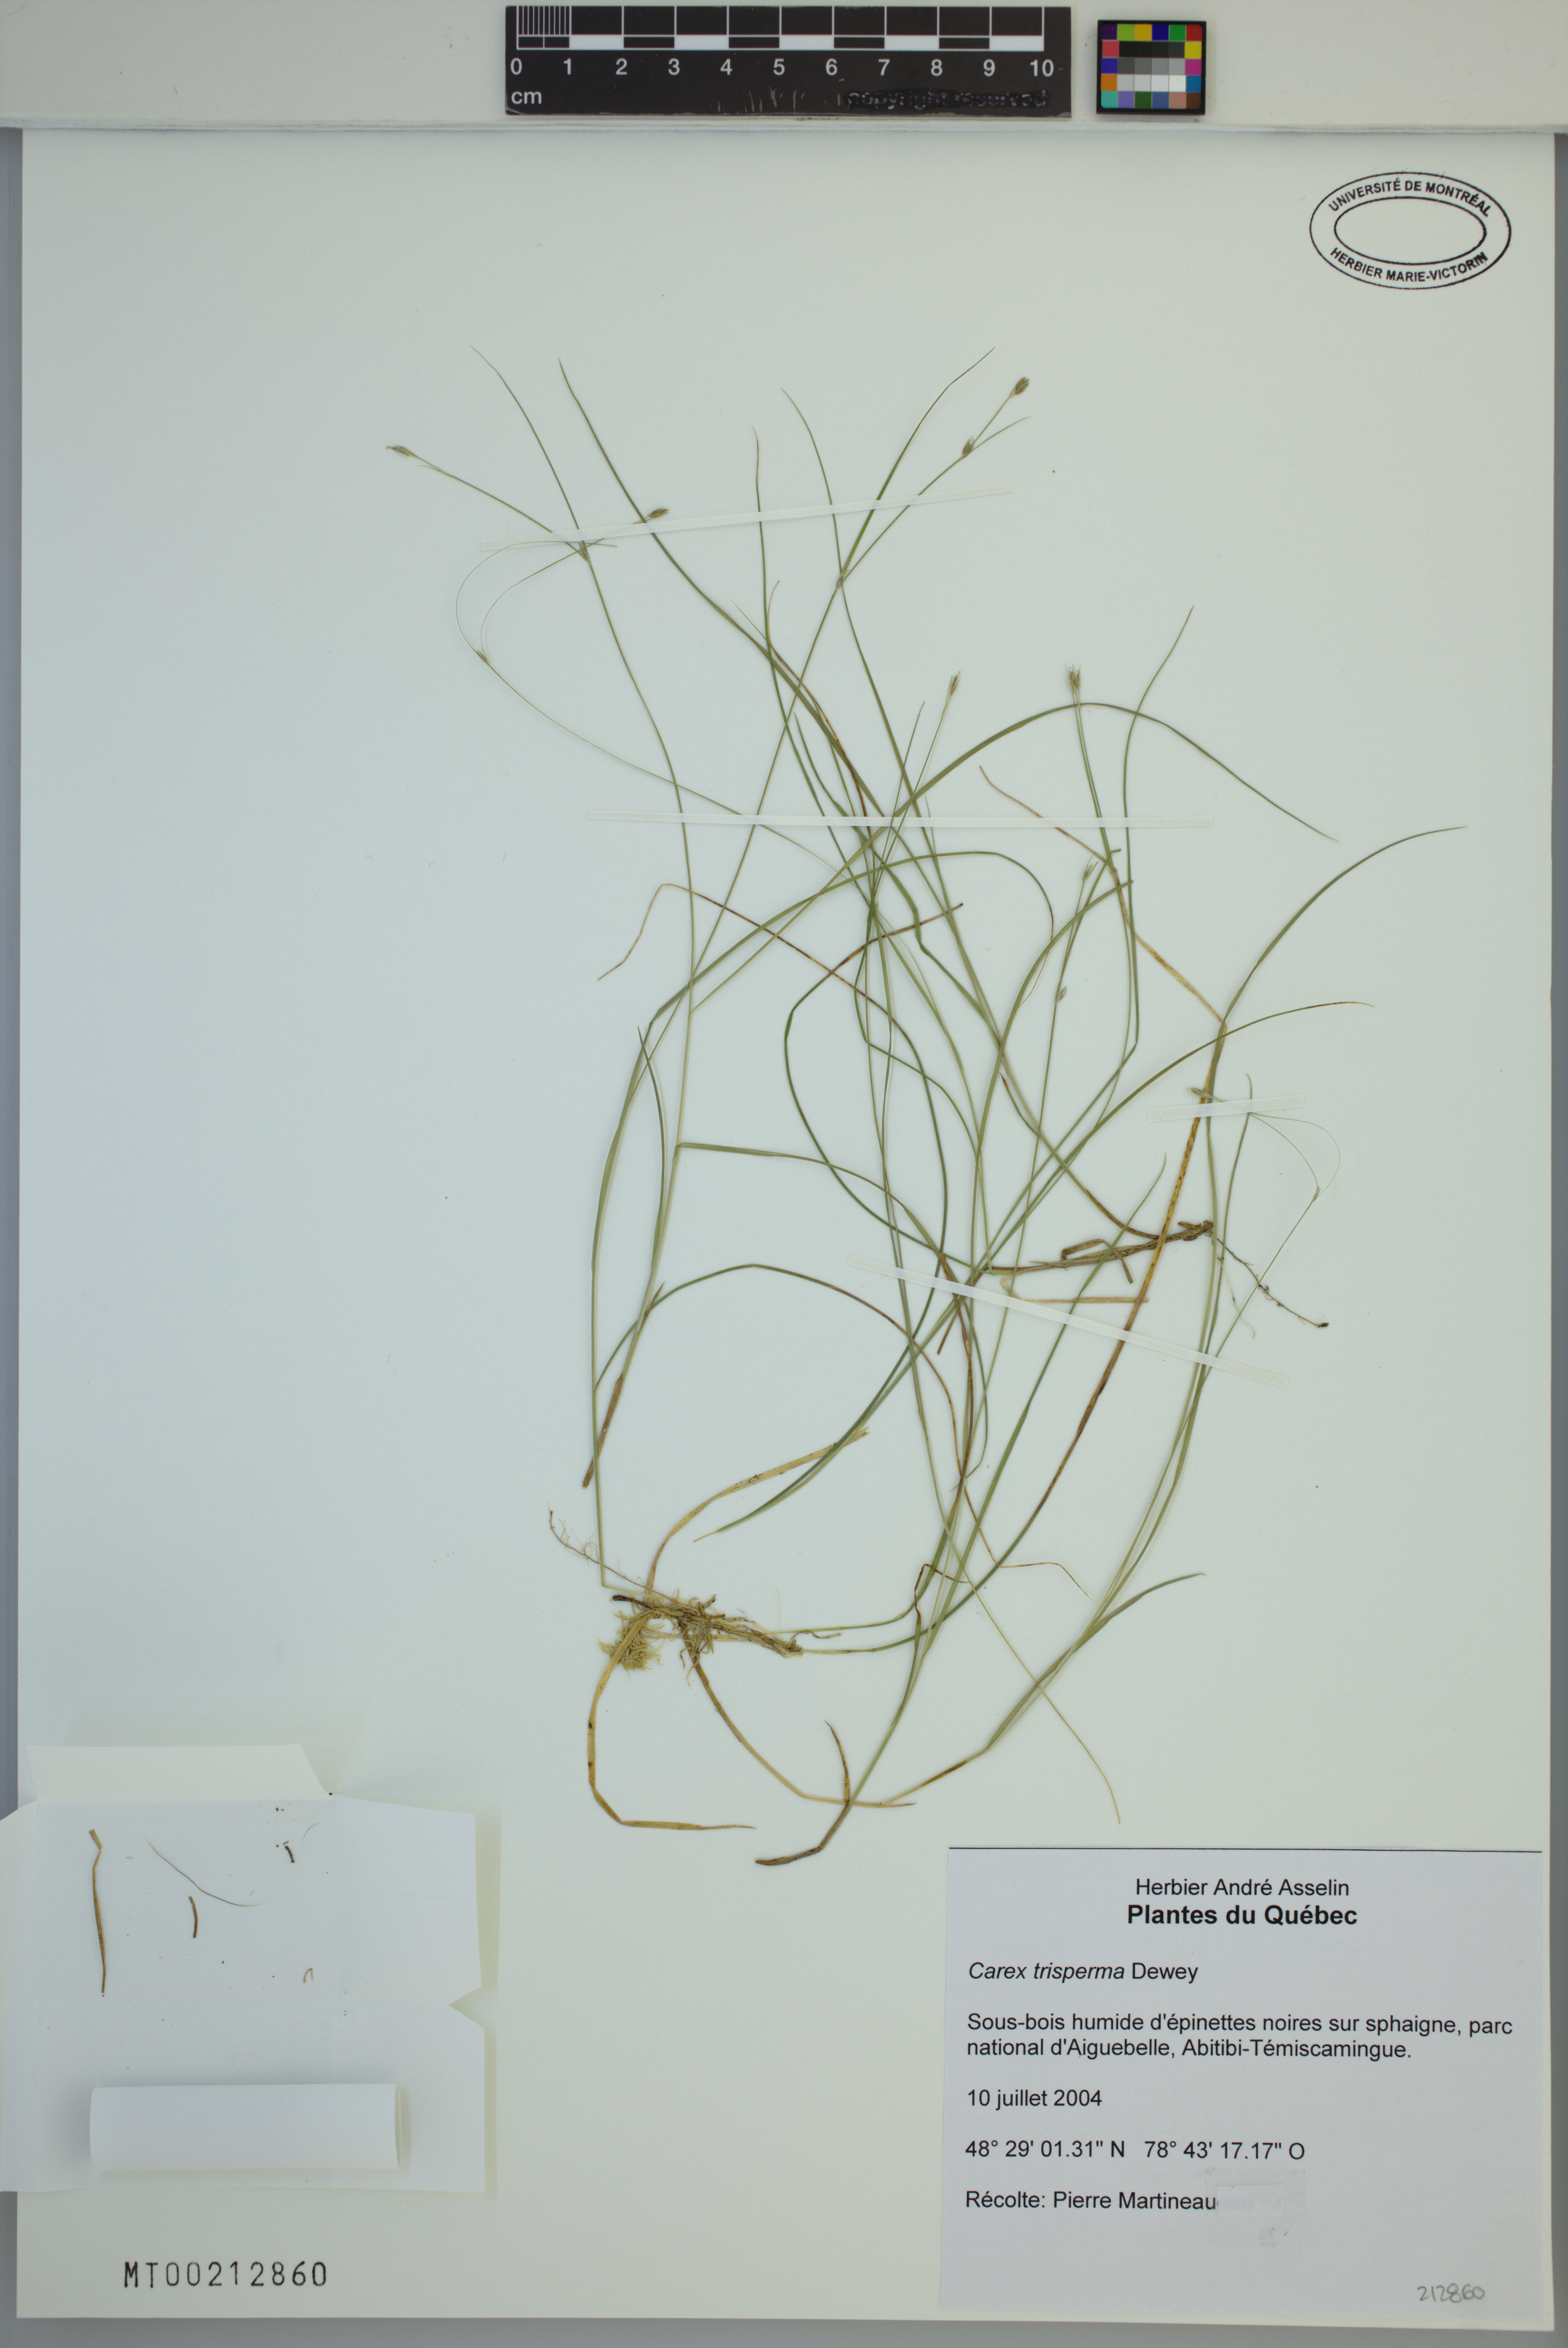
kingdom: Plantae
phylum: Tracheophyta
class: Liliopsida
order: Poales
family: Cyperaceae
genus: Carex
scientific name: Carex trisperma
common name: Three-seeded sedge
